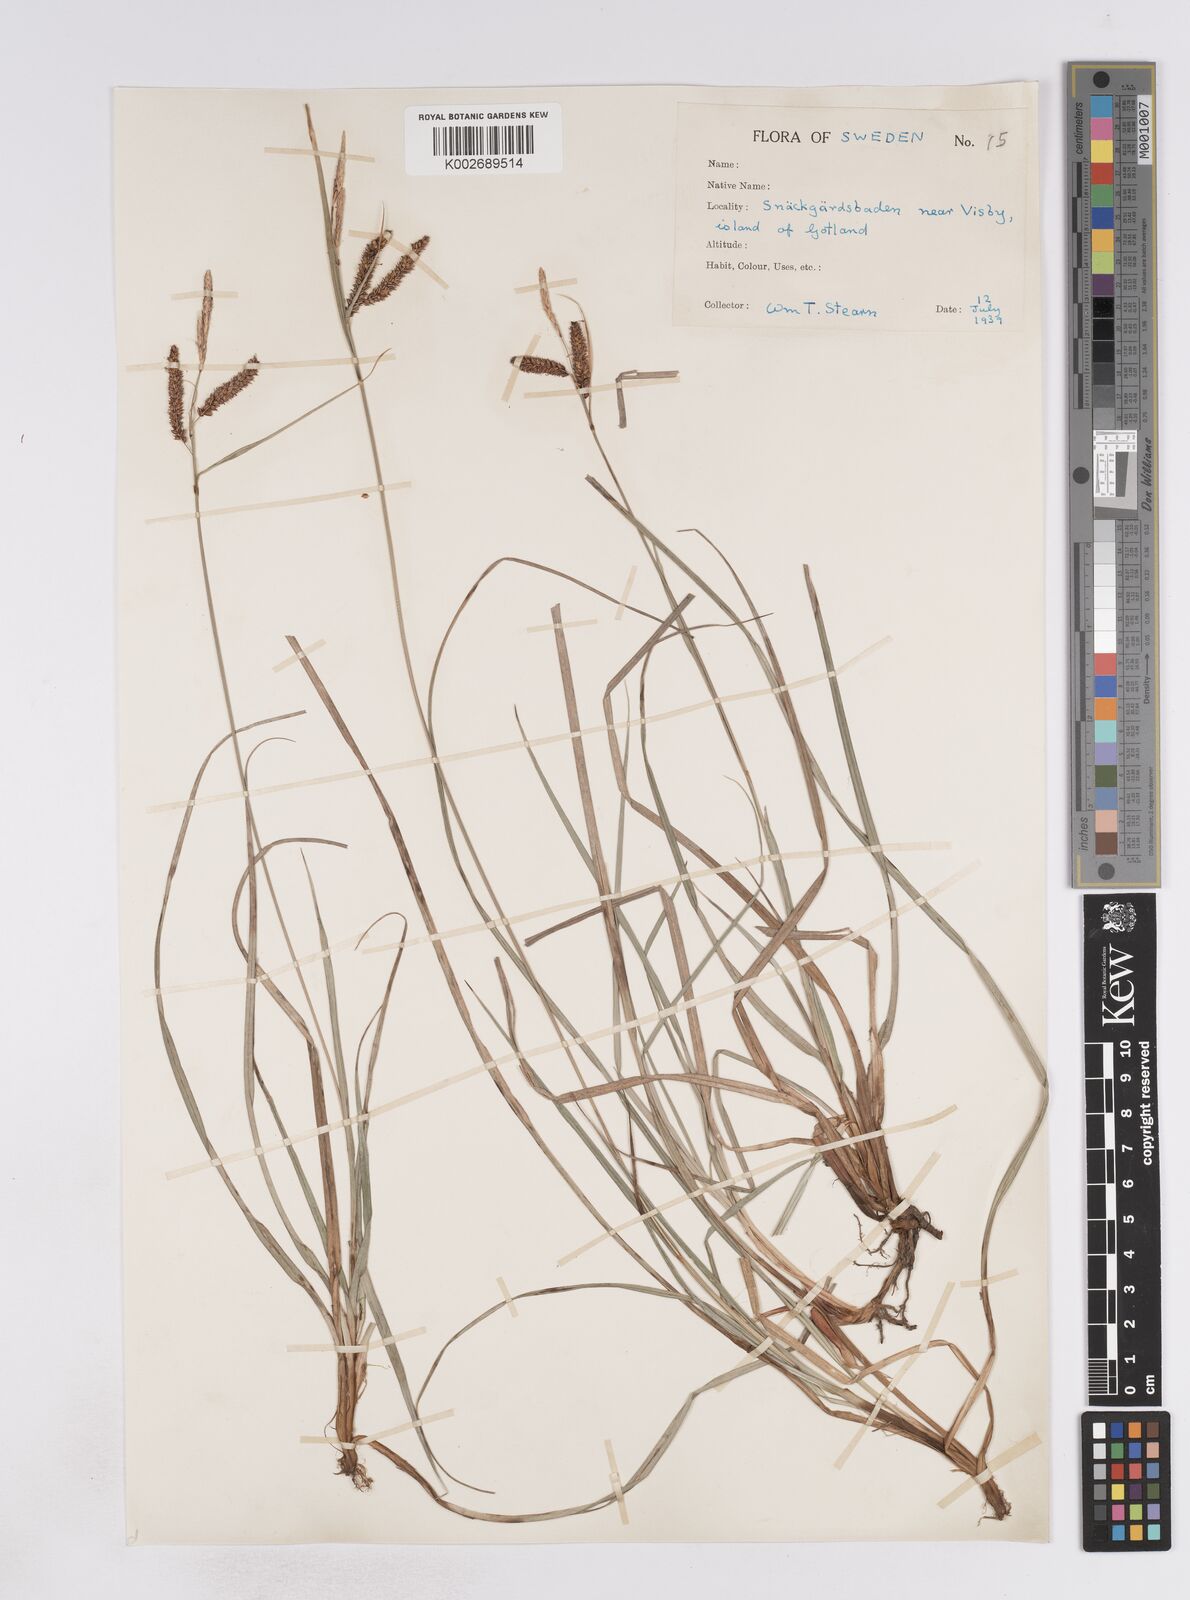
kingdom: Plantae
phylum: Tracheophyta
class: Liliopsida
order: Poales
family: Cyperaceae
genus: Carex
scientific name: Carex flacca
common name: Glaucous sedge
